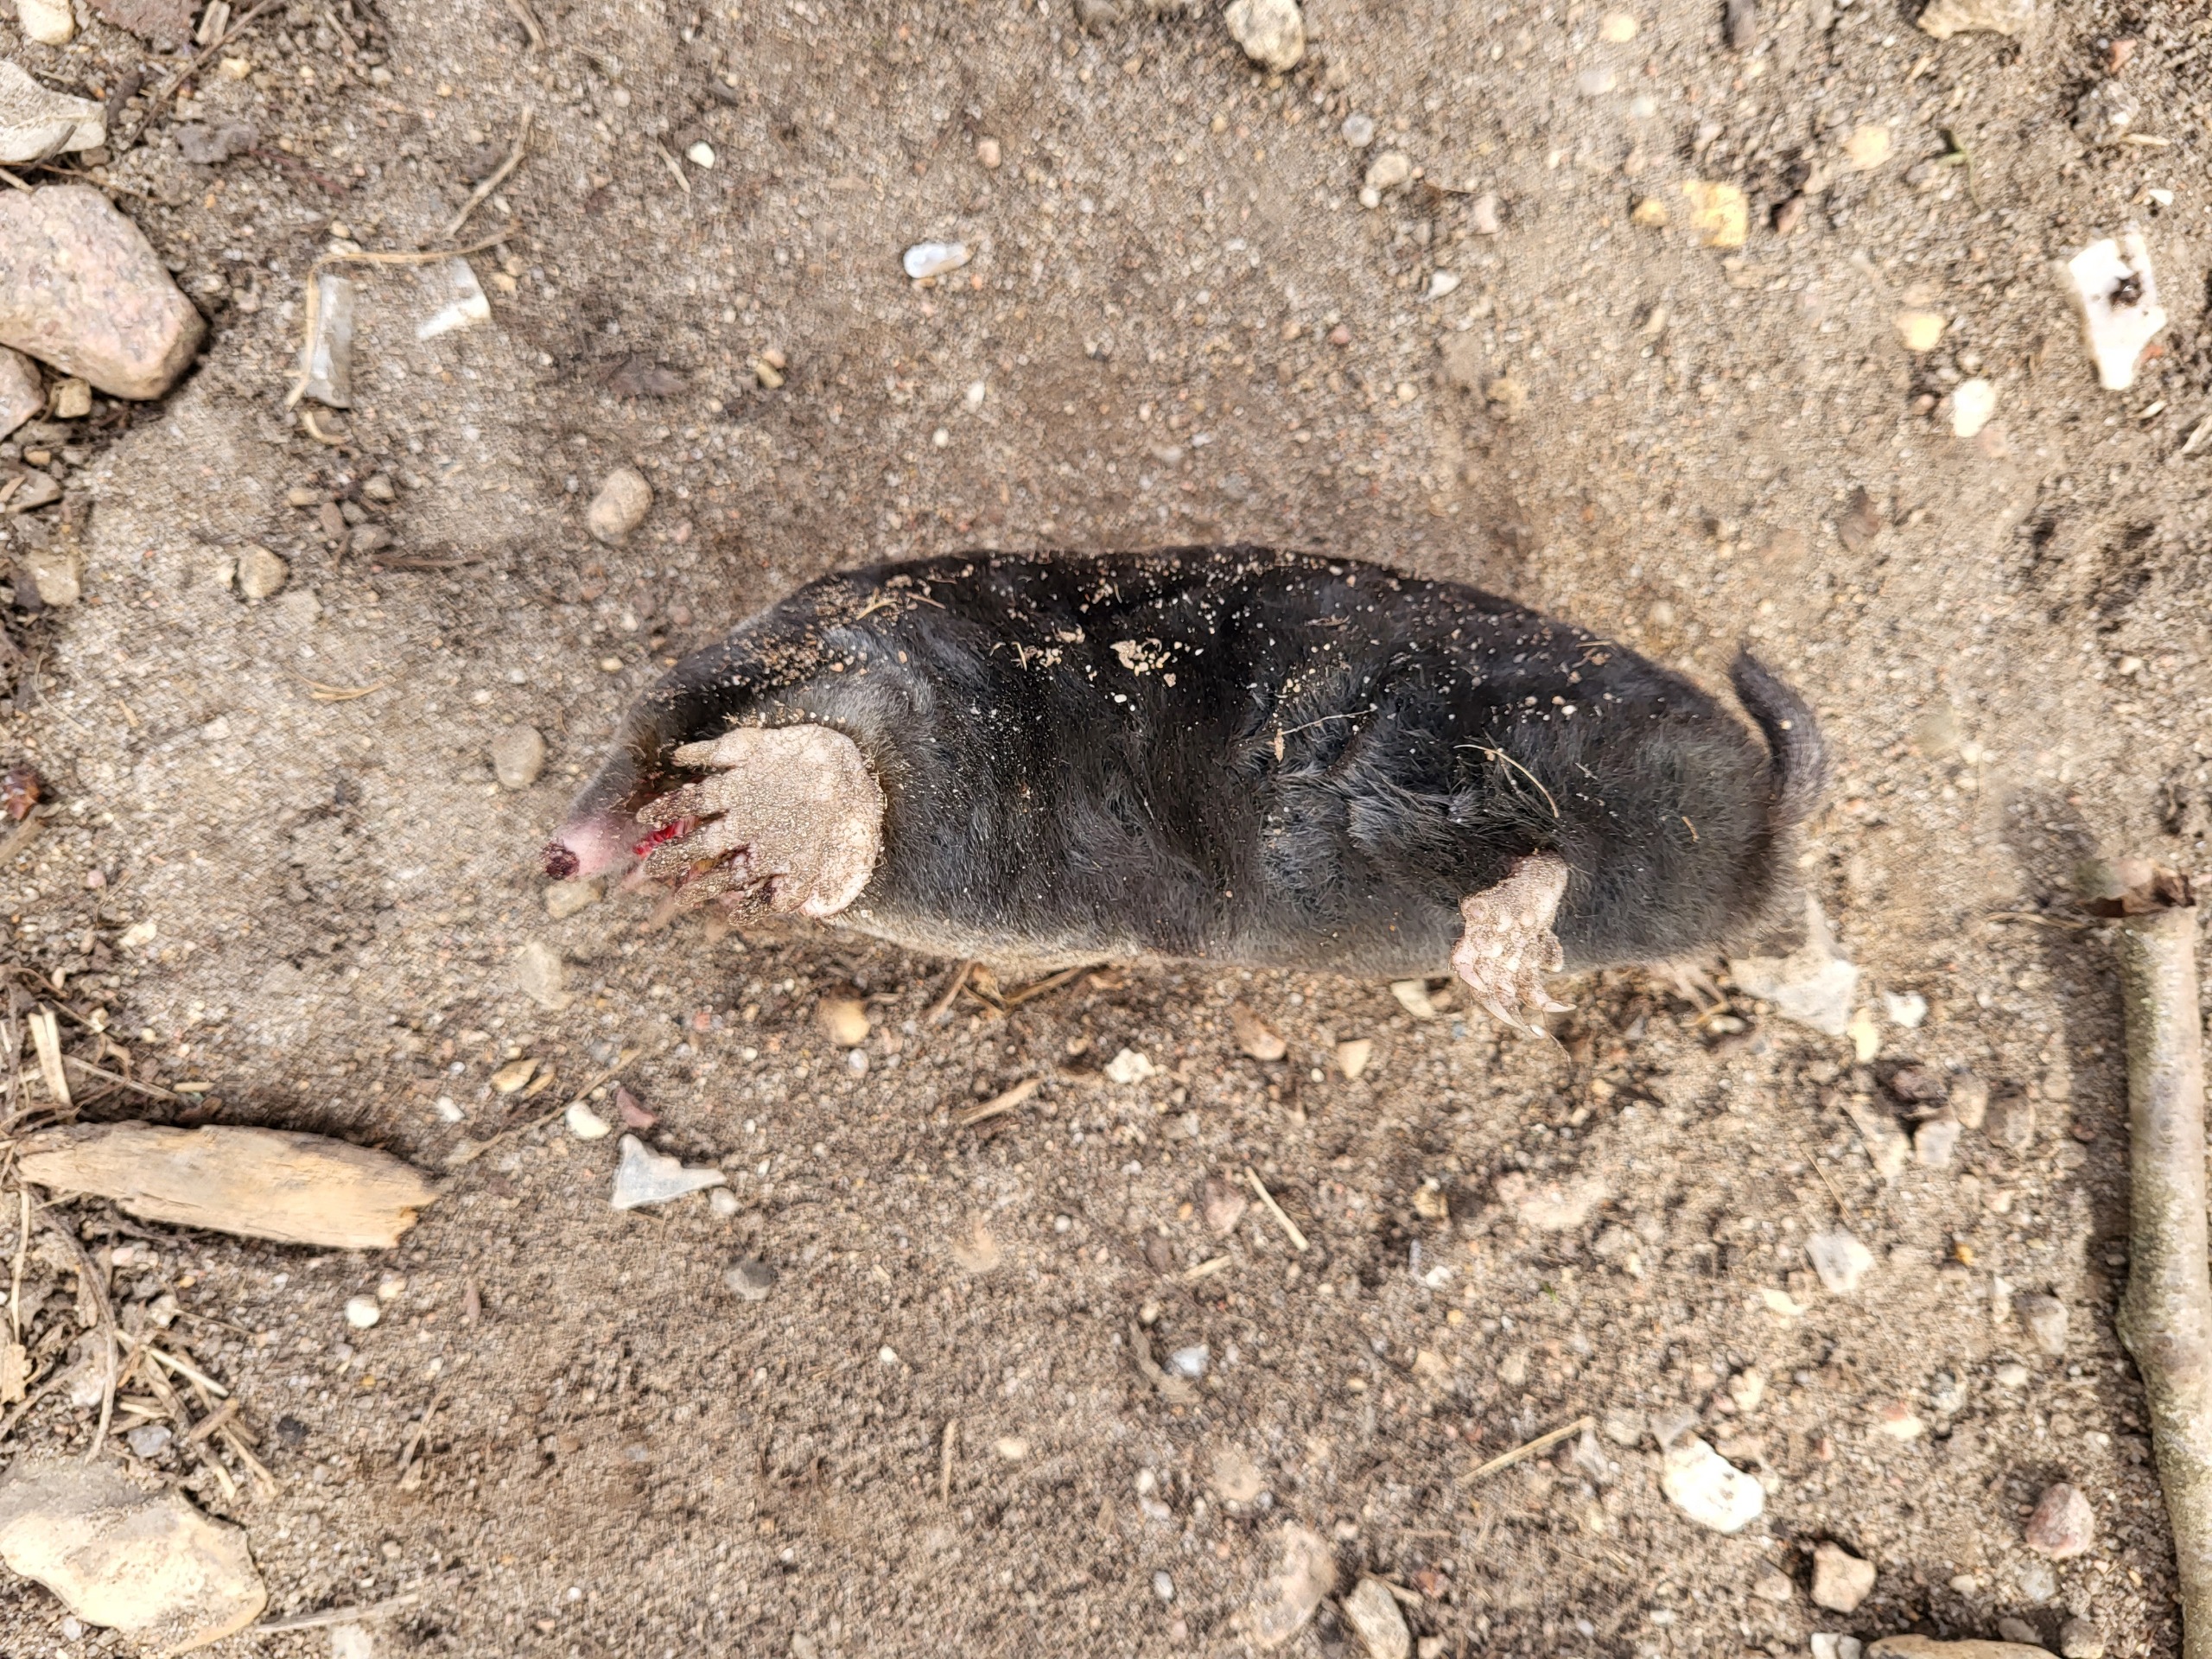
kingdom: Animalia
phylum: Chordata
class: Mammalia
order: Soricomorpha
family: Talpidae
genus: Talpa
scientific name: Talpa europaea
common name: Muldvarp
